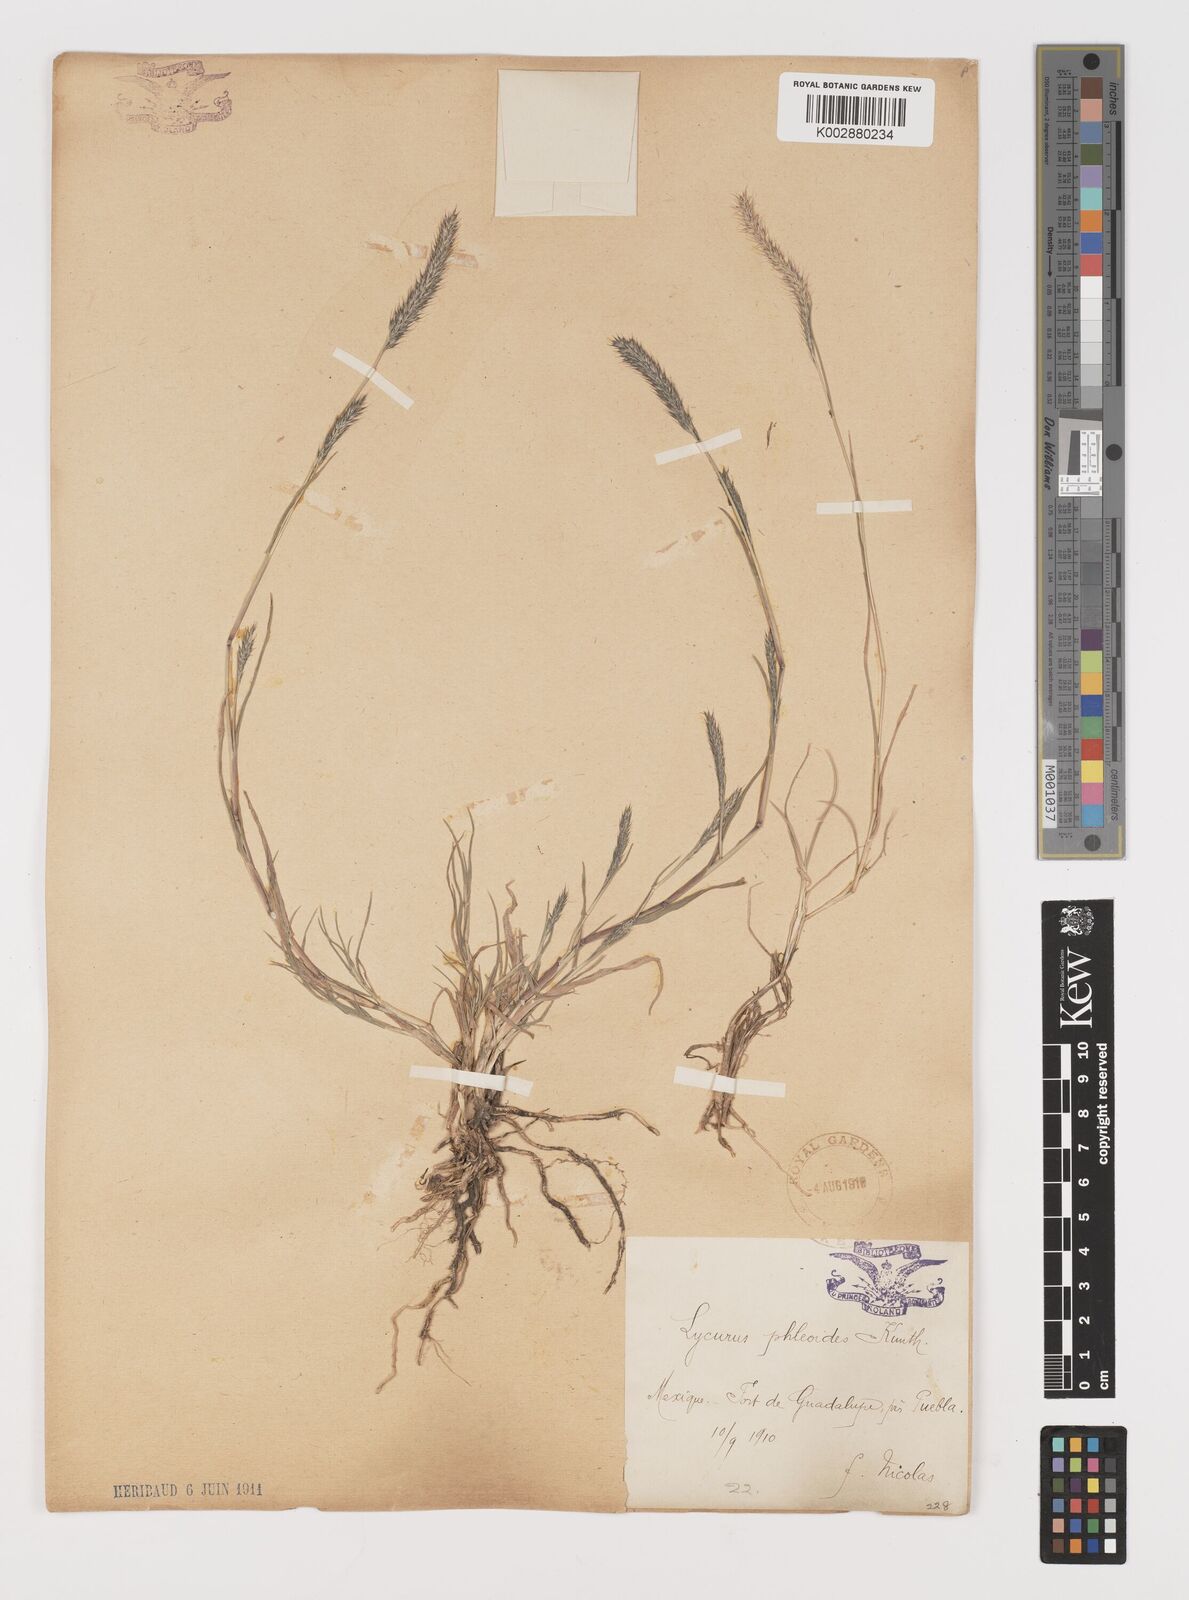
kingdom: Plantae
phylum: Tracheophyta
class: Liliopsida
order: Poales
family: Poaceae
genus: Muhlenbergia
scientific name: Muhlenbergia phleoides
